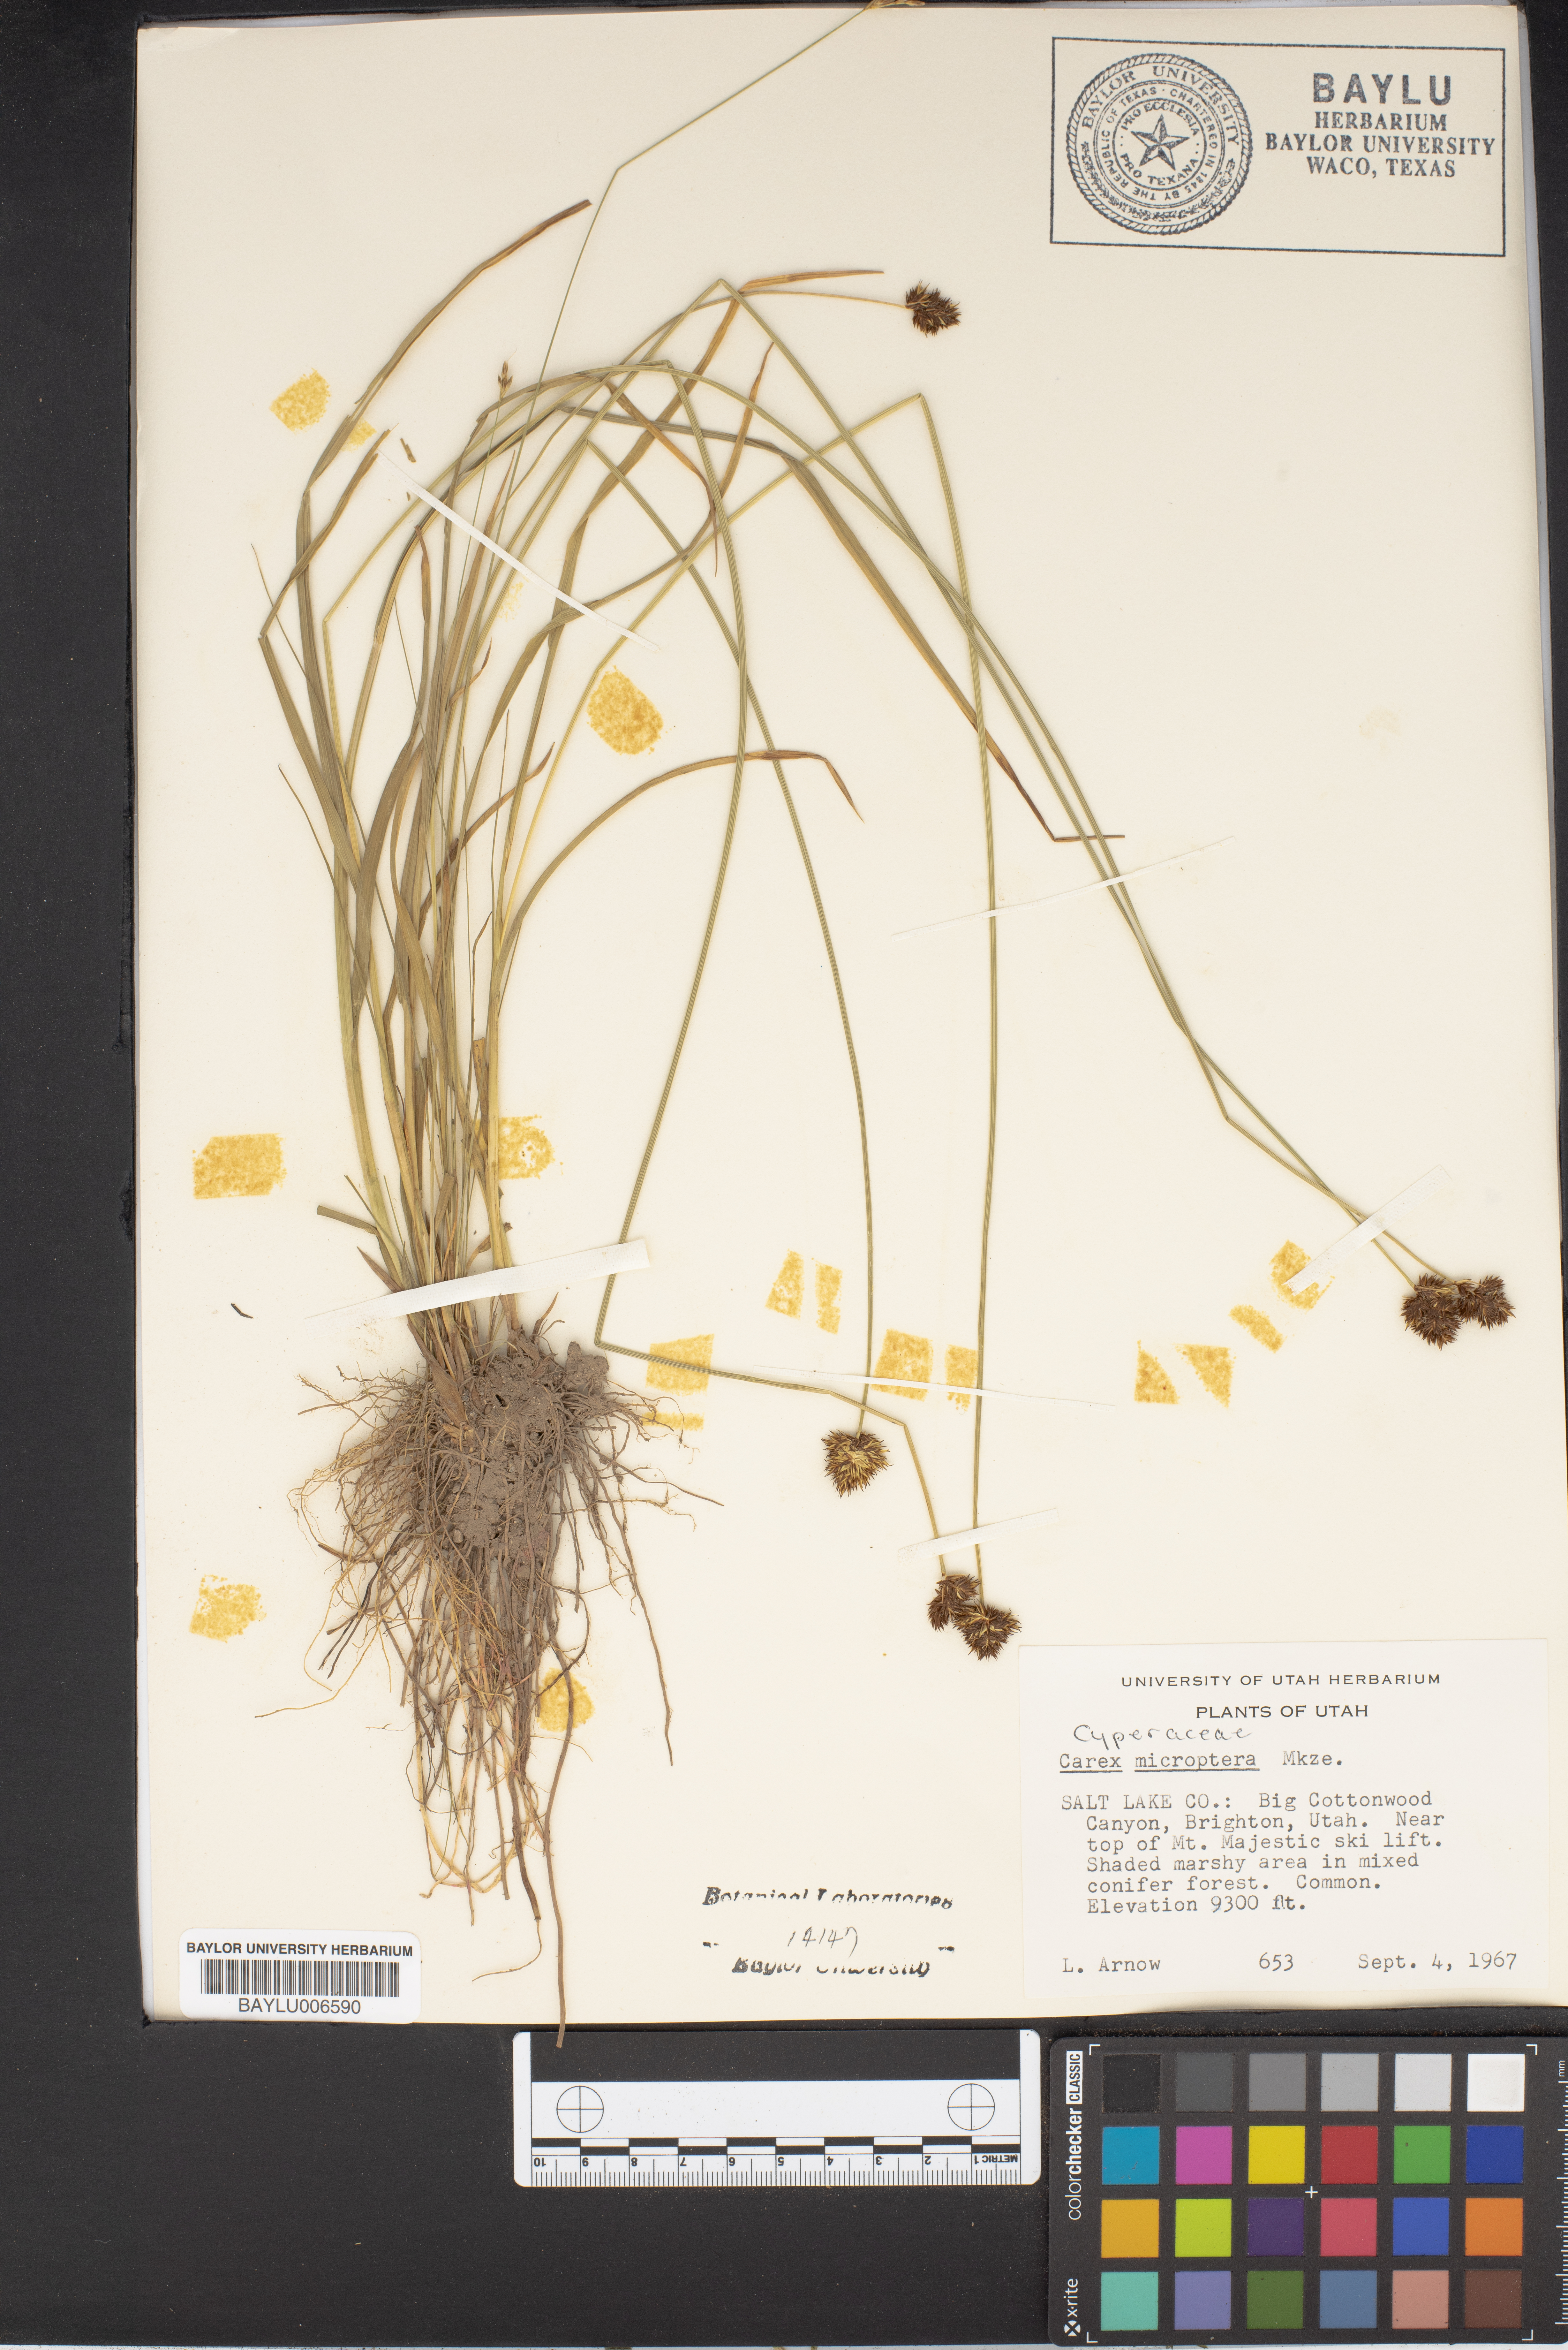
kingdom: Plantae
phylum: Tracheophyta
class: Liliopsida
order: Poales
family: Cyperaceae
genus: Carex
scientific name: Carex microptera
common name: Oval-headed sedge
